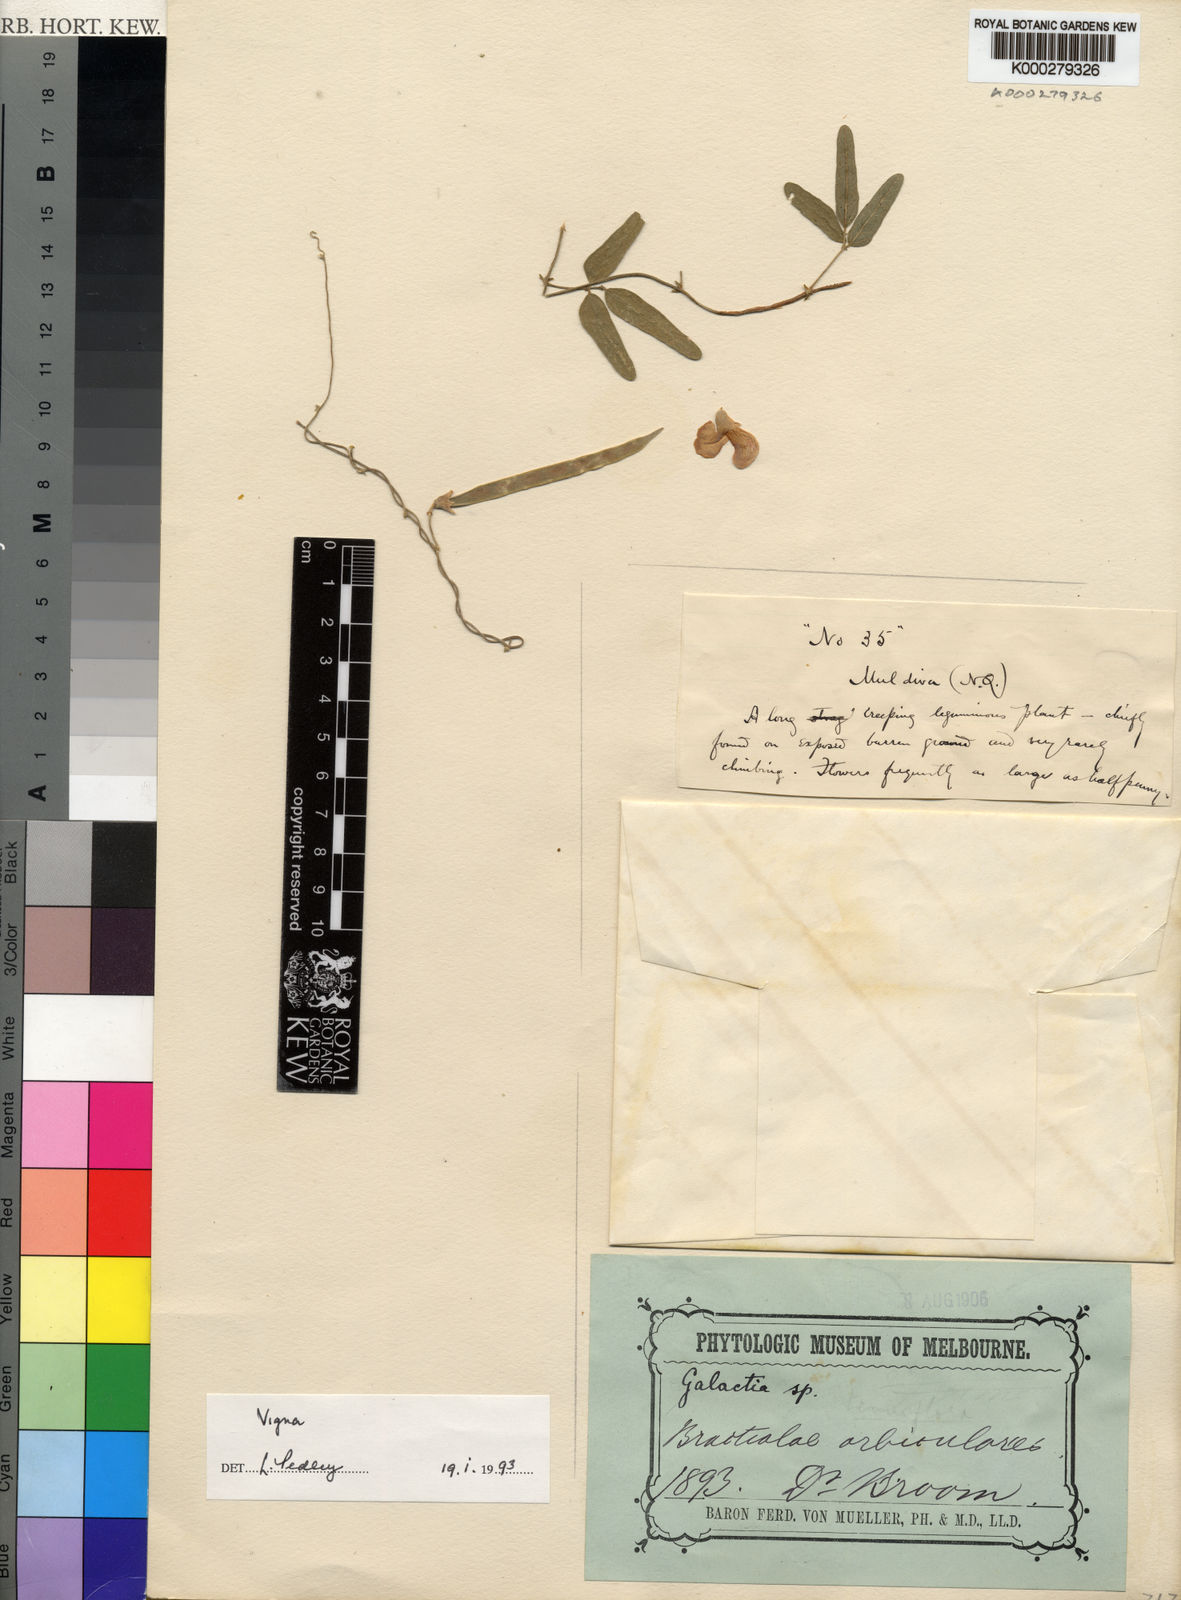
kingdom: Plantae
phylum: Tracheophyta
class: Magnoliopsida
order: Fabales
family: Fabaceae
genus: Vigna
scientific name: Vigna
